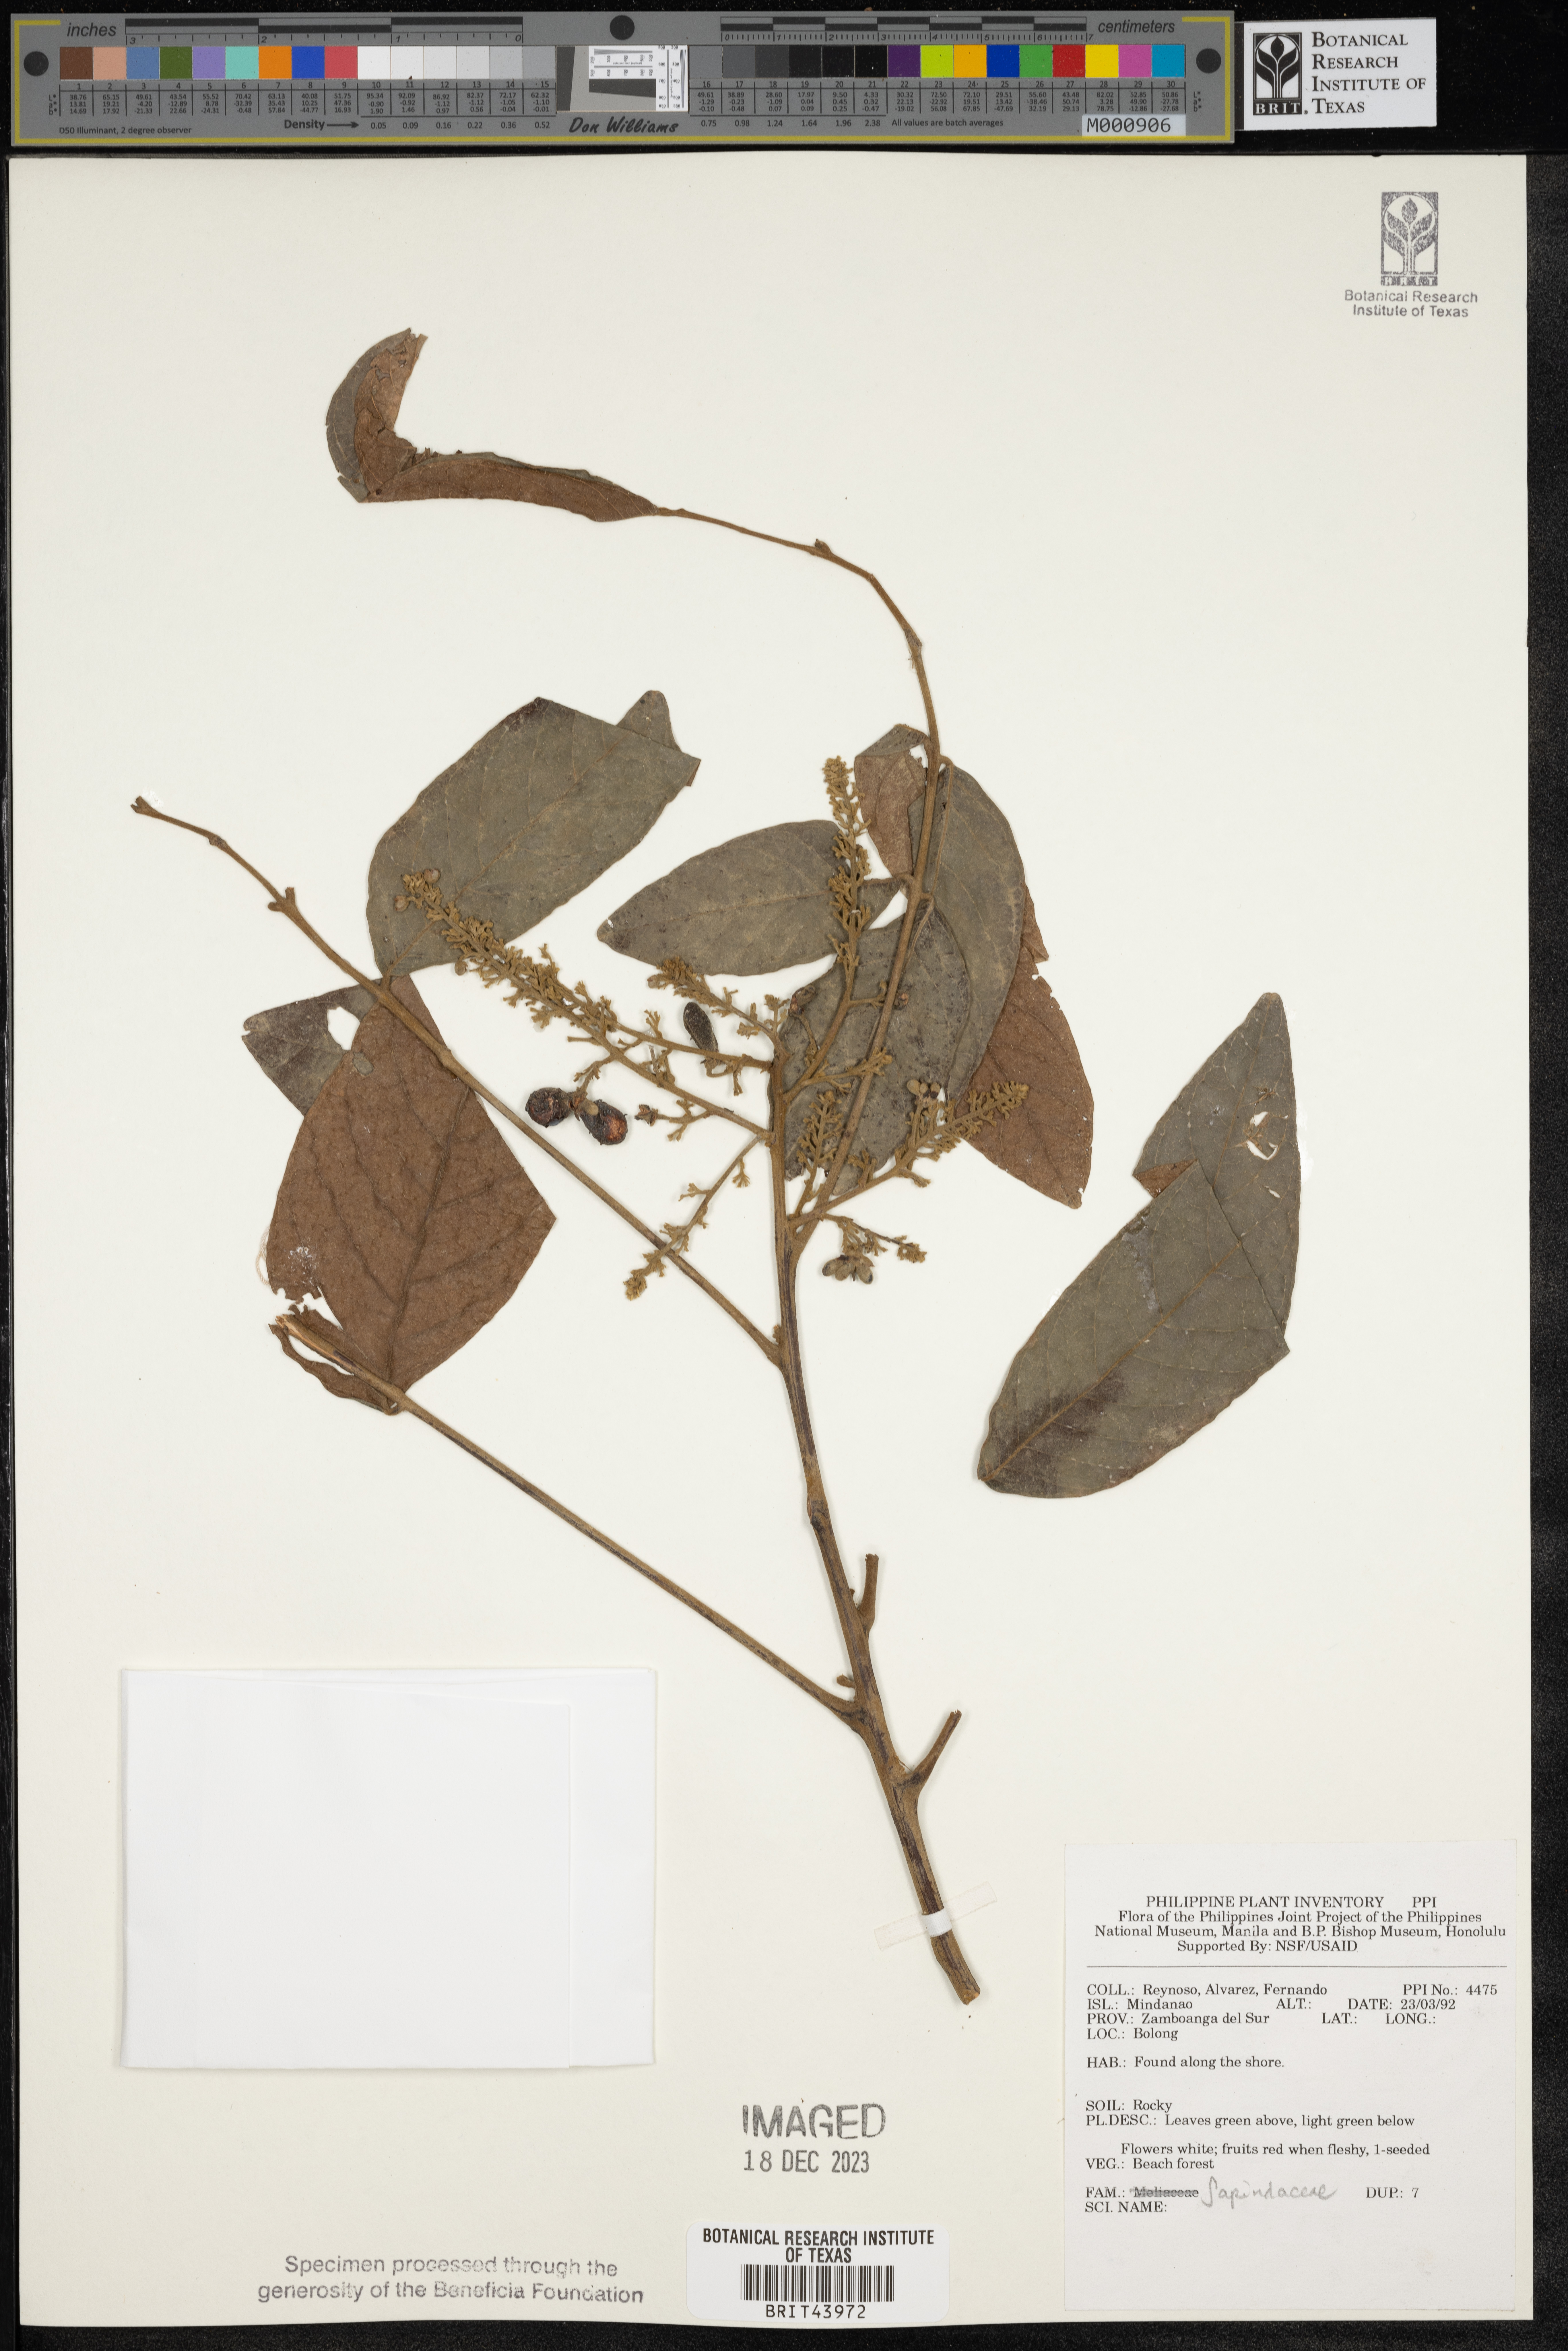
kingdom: Plantae
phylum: Tracheophyta
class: Magnoliopsida
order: Sapindales
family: Sapindaceae
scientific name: Sapindaceae
